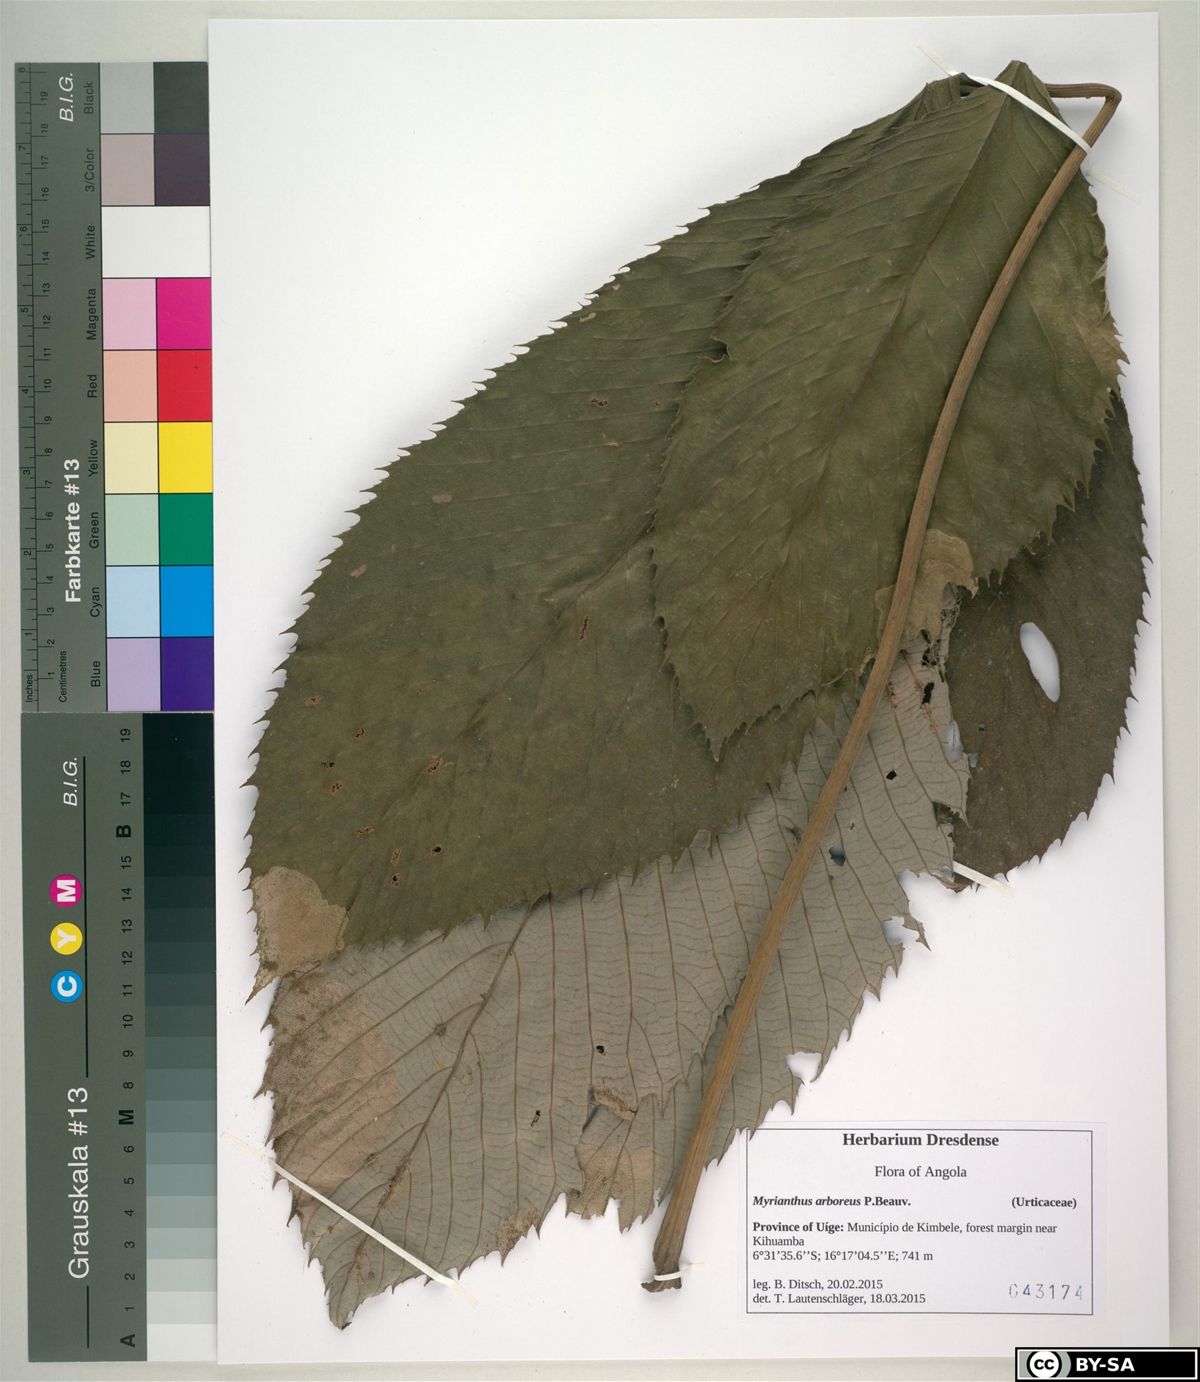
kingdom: Plantae
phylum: Tracheophyta
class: Magnoliopsida
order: Rosales
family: Urticaceae
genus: Myrianthus
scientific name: Myrianthus arboreus
